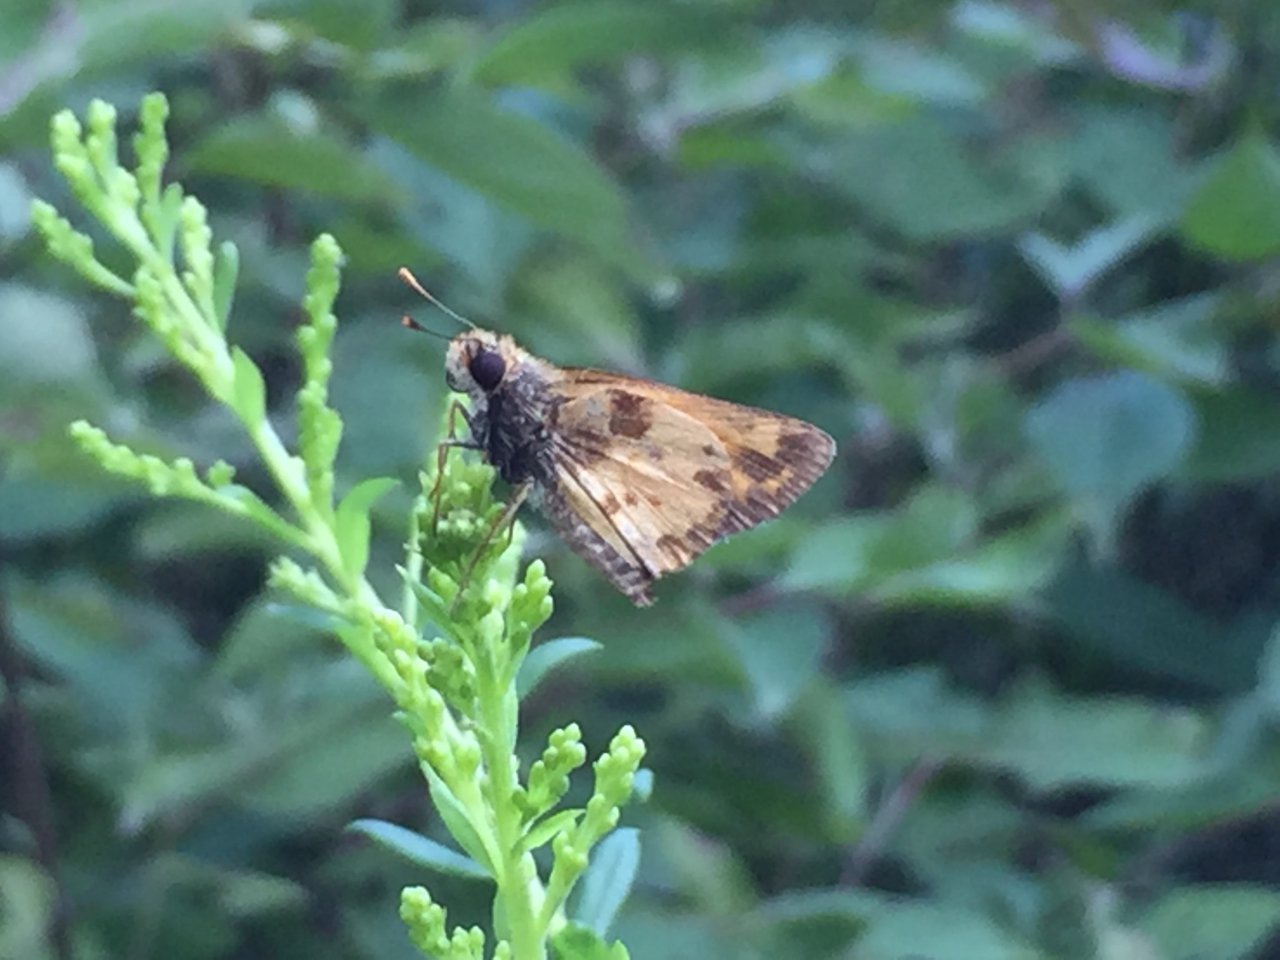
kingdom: Animalia
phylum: Arthropoda
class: Insecta
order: Lepidoptera
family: Hesperiidae
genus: Lon
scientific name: Lon zabulon
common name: Zabulon Skipper
